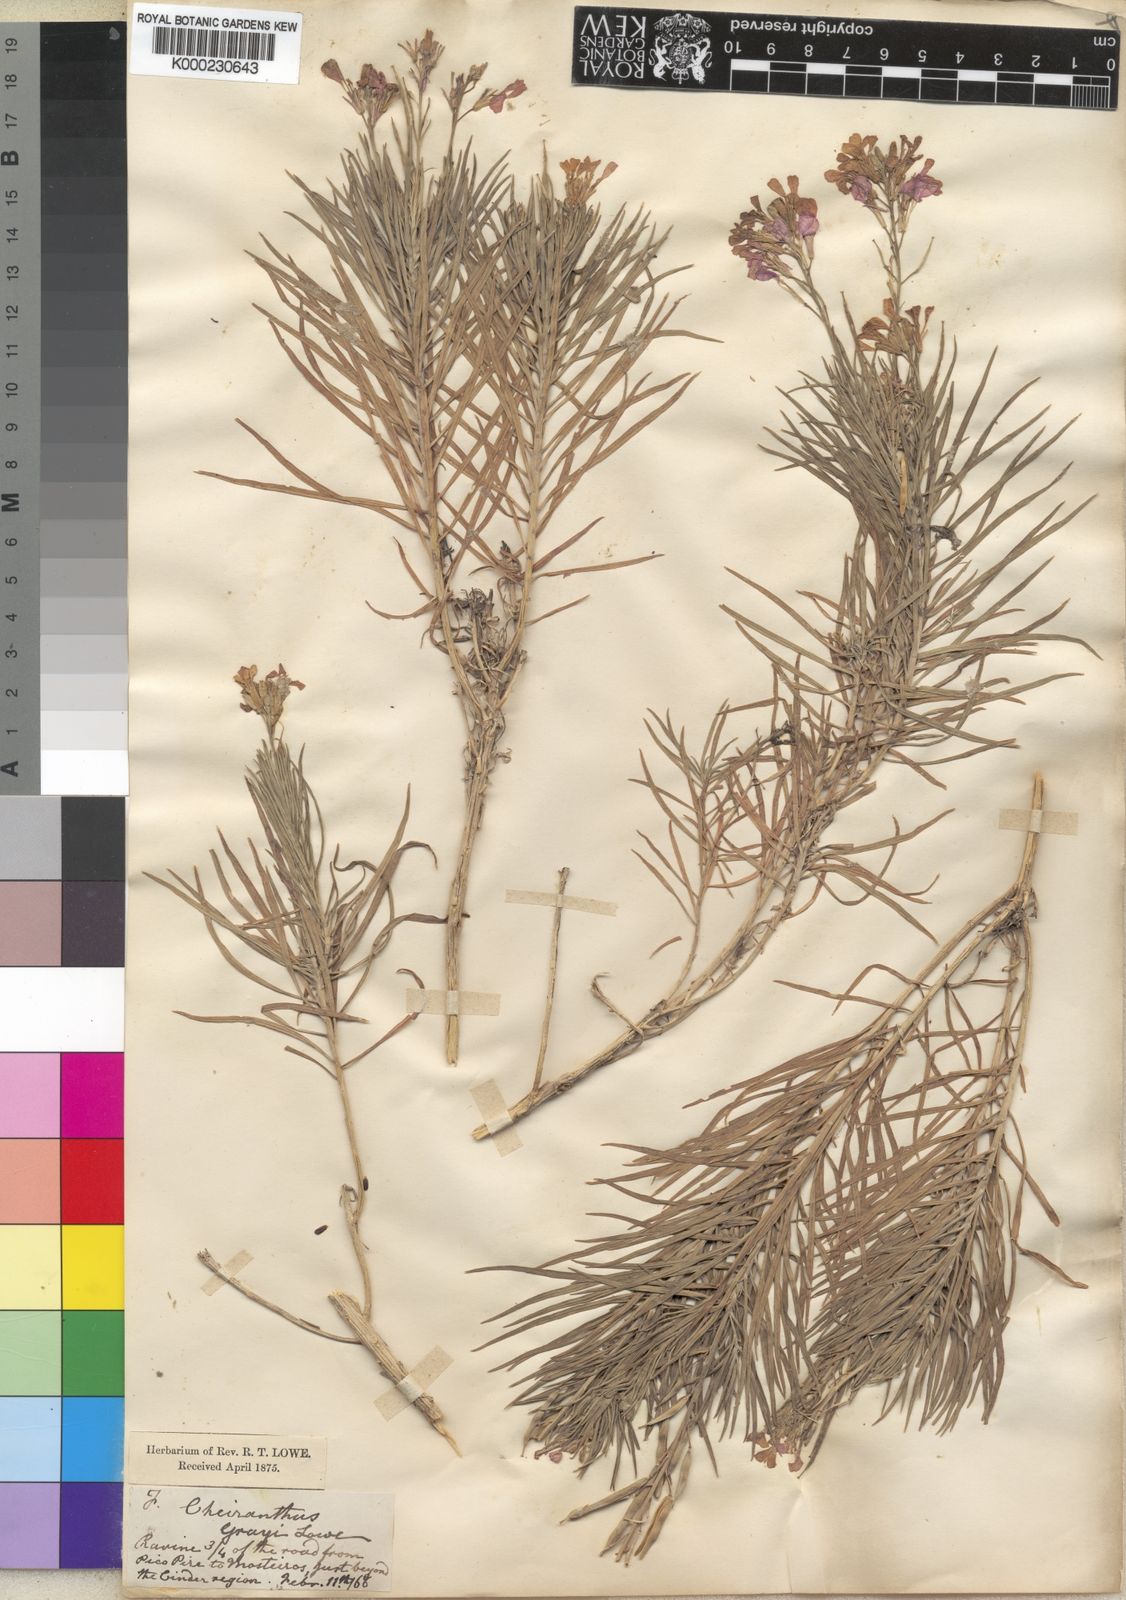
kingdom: Plantae
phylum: Tracheophyta
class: Magnoliopsida
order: Brassicales
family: Brassicaceae
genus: Erysimum
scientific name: Erysimum
